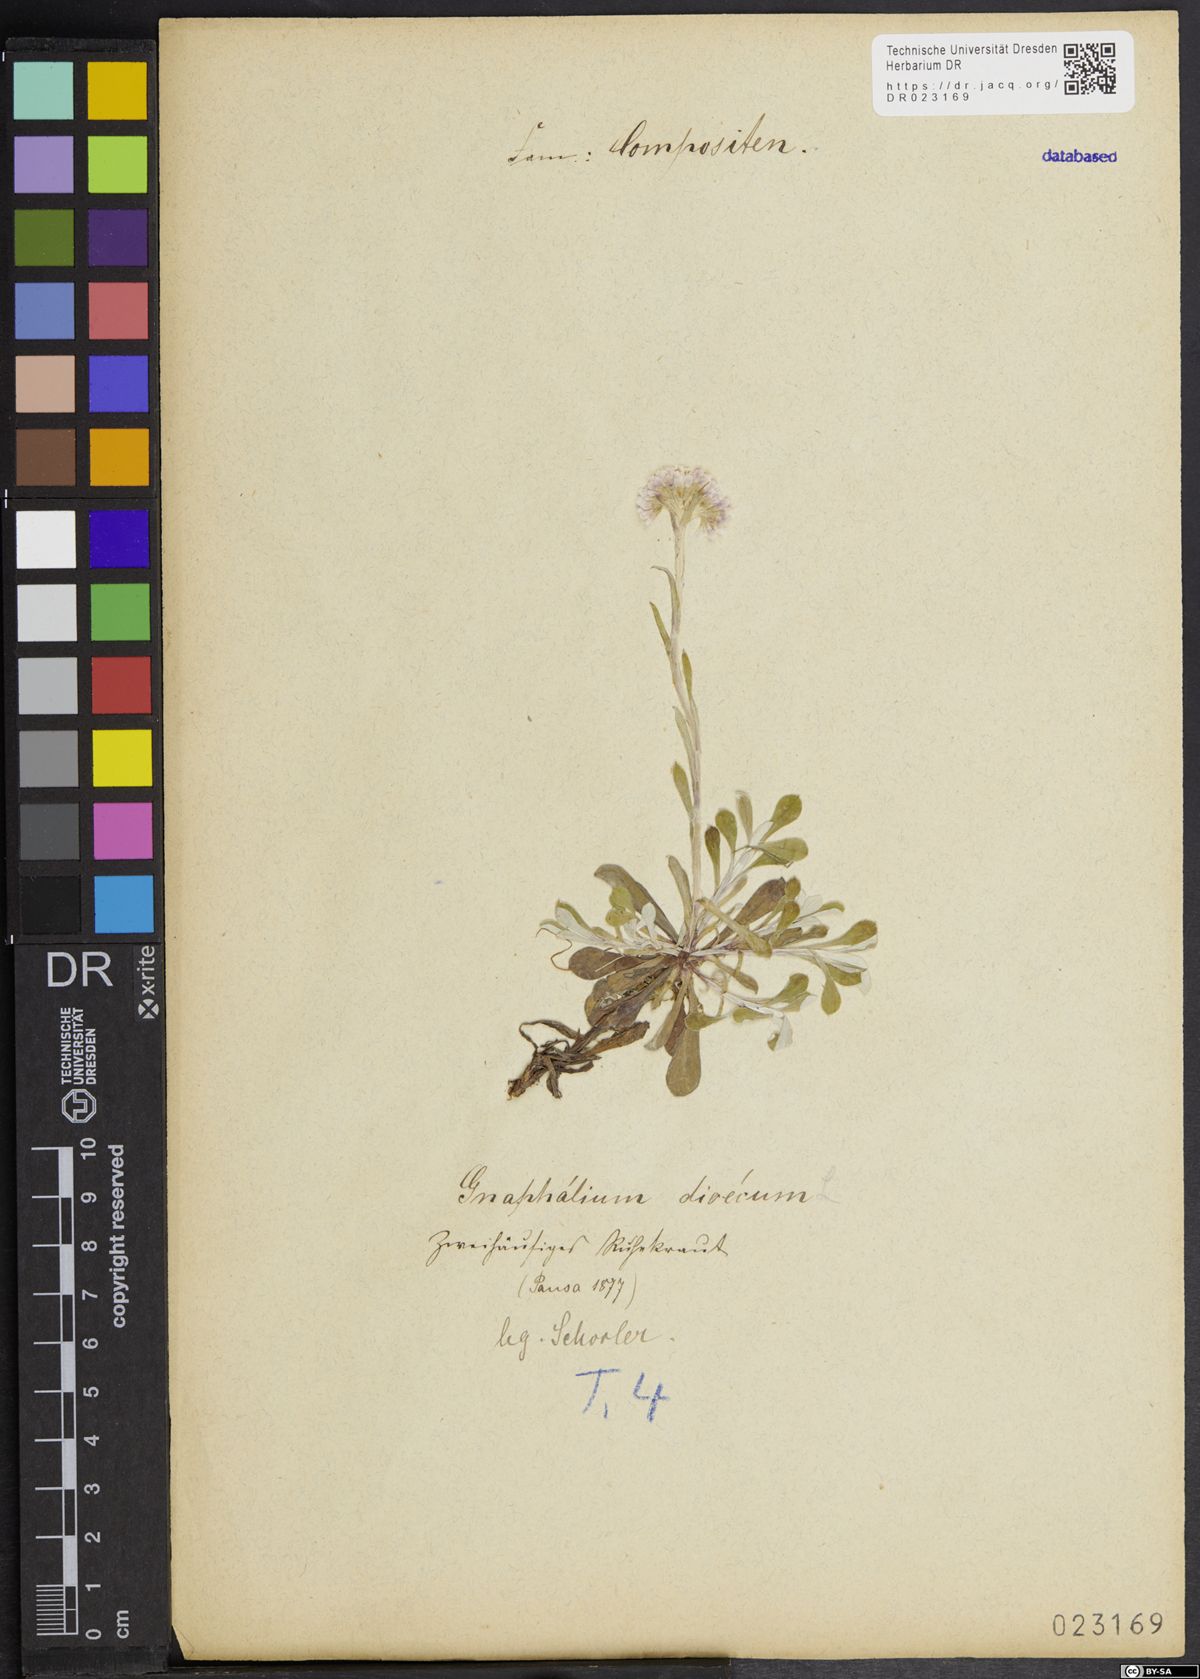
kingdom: Plantae
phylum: Tracheophyta
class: Magnoliopsida
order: Asterales
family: Asteraceae
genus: Antennaria
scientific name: Antennaria dioica
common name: Mountain everlasting
